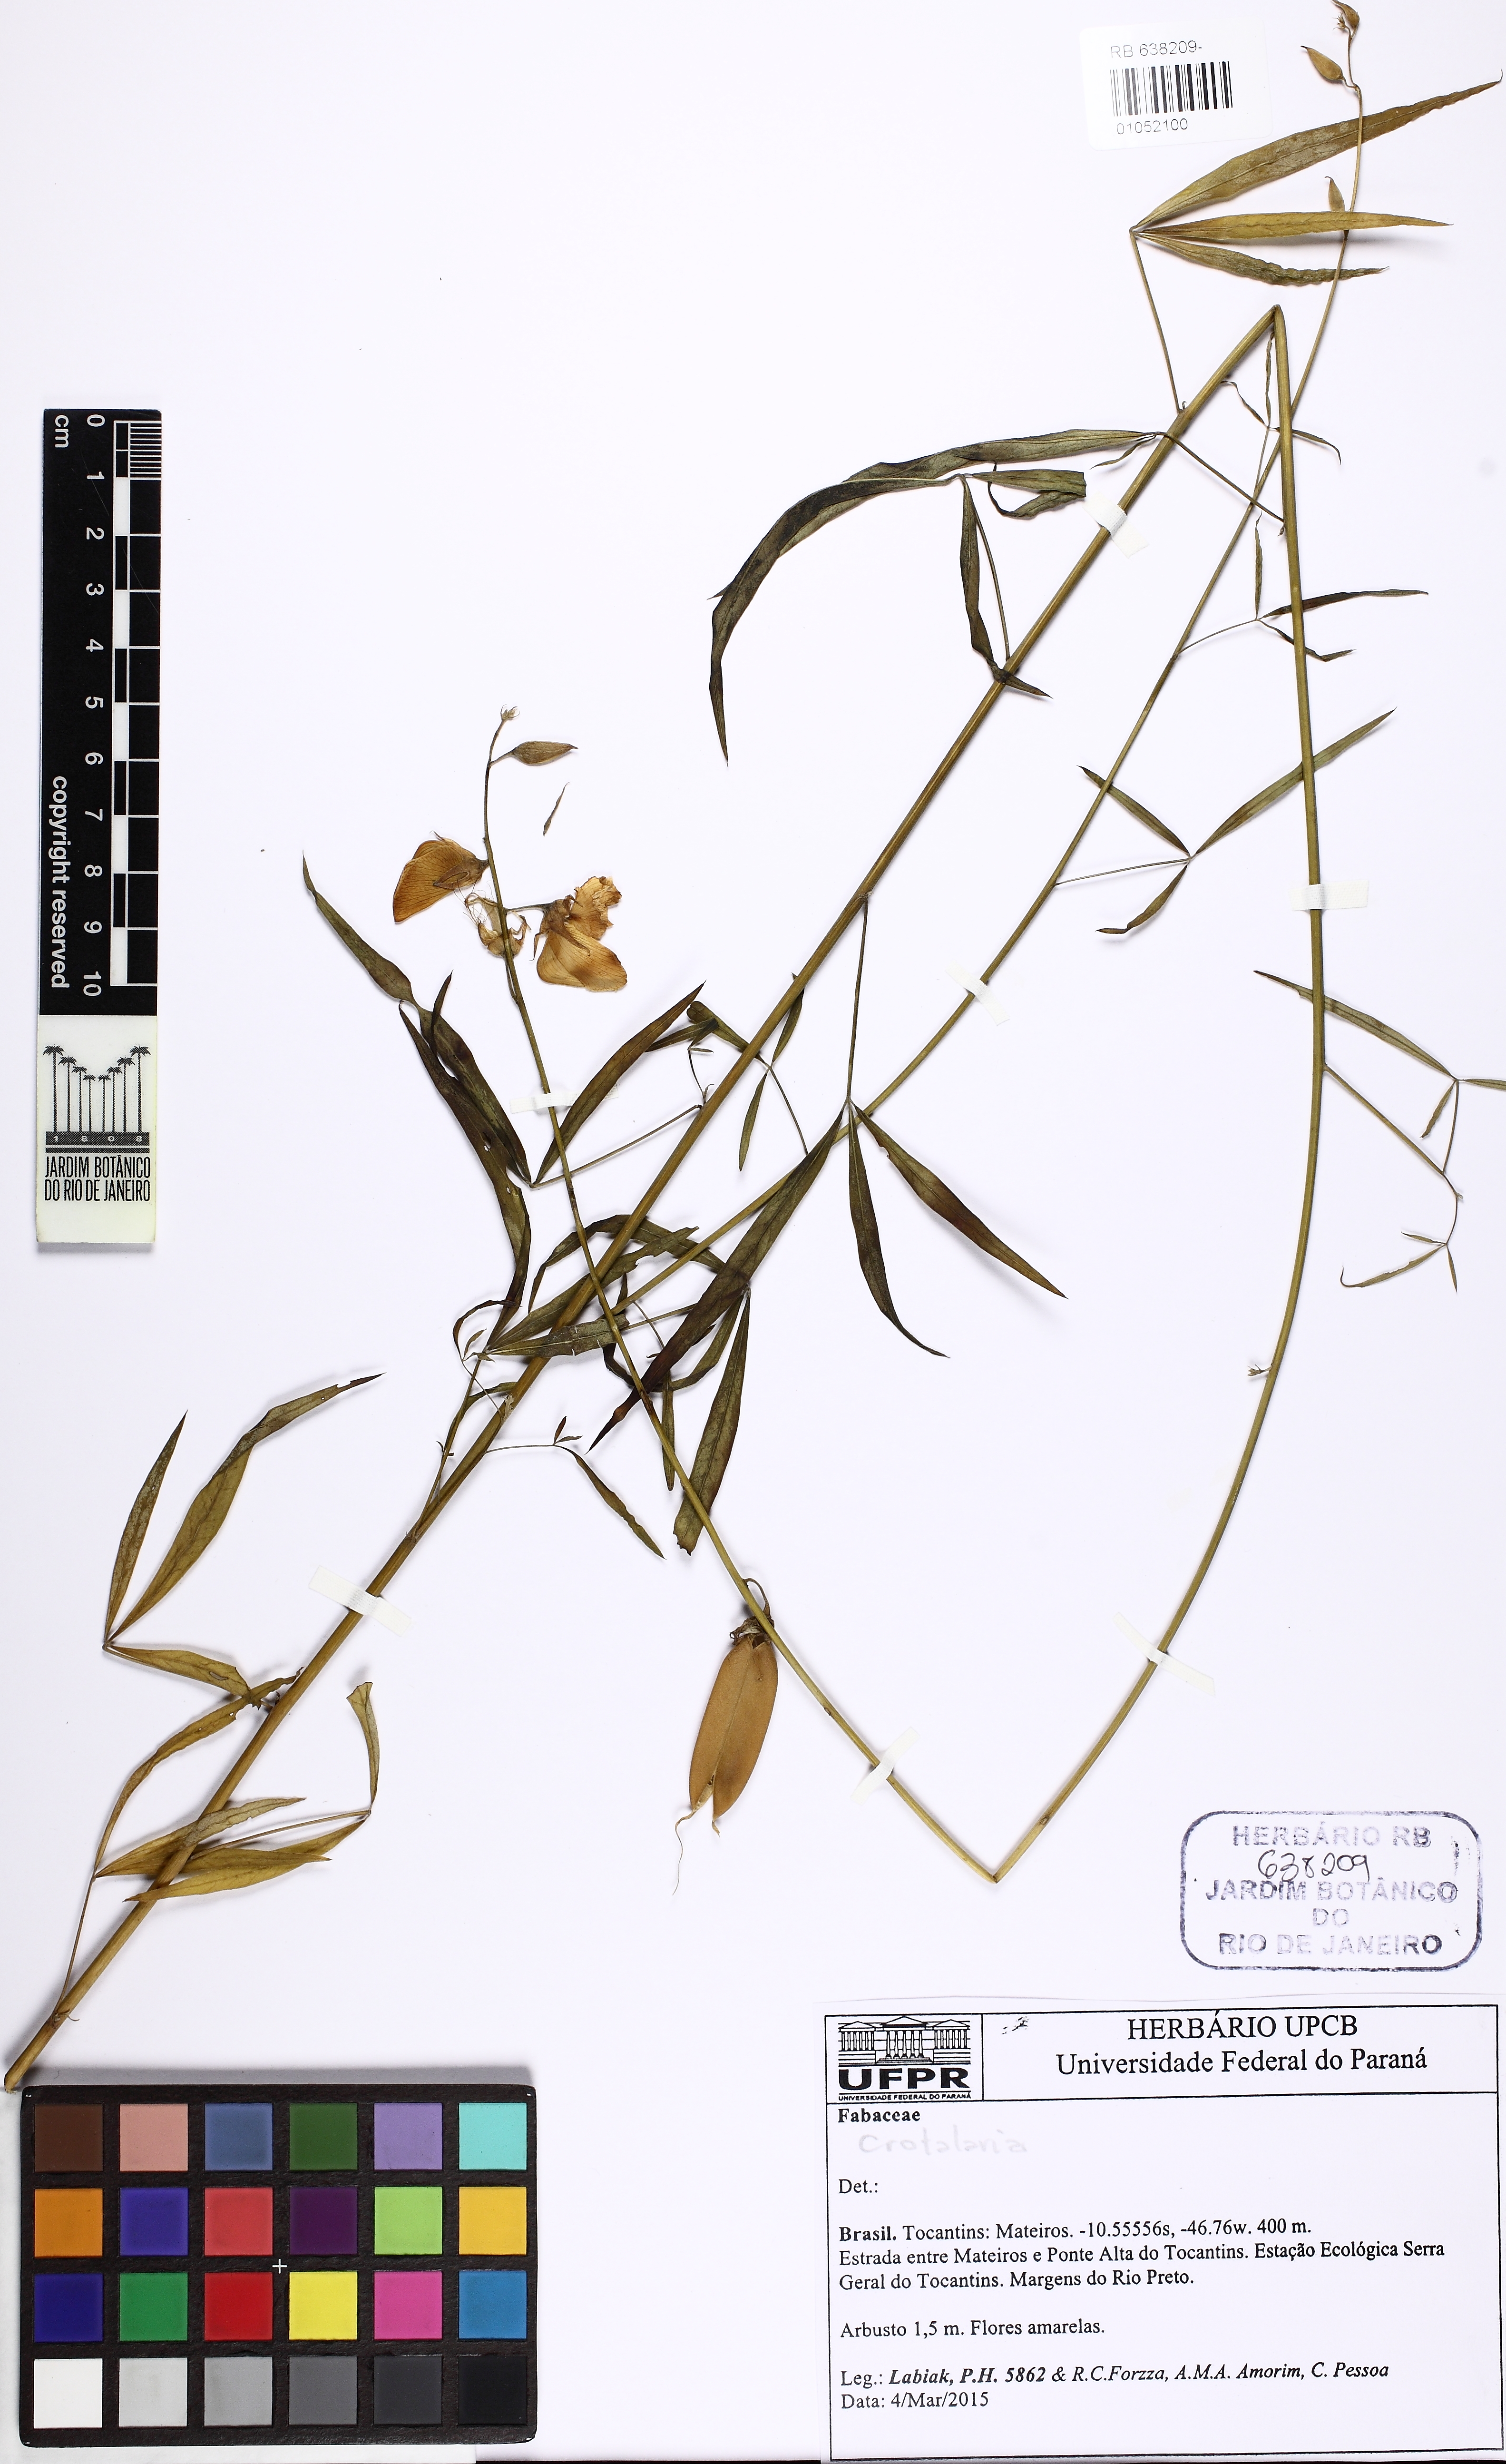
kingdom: Plantae
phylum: Tracheophyta
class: Magnoliopsida
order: Fabales
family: Fabaceae
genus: Crotalaria
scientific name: Crotalaria
